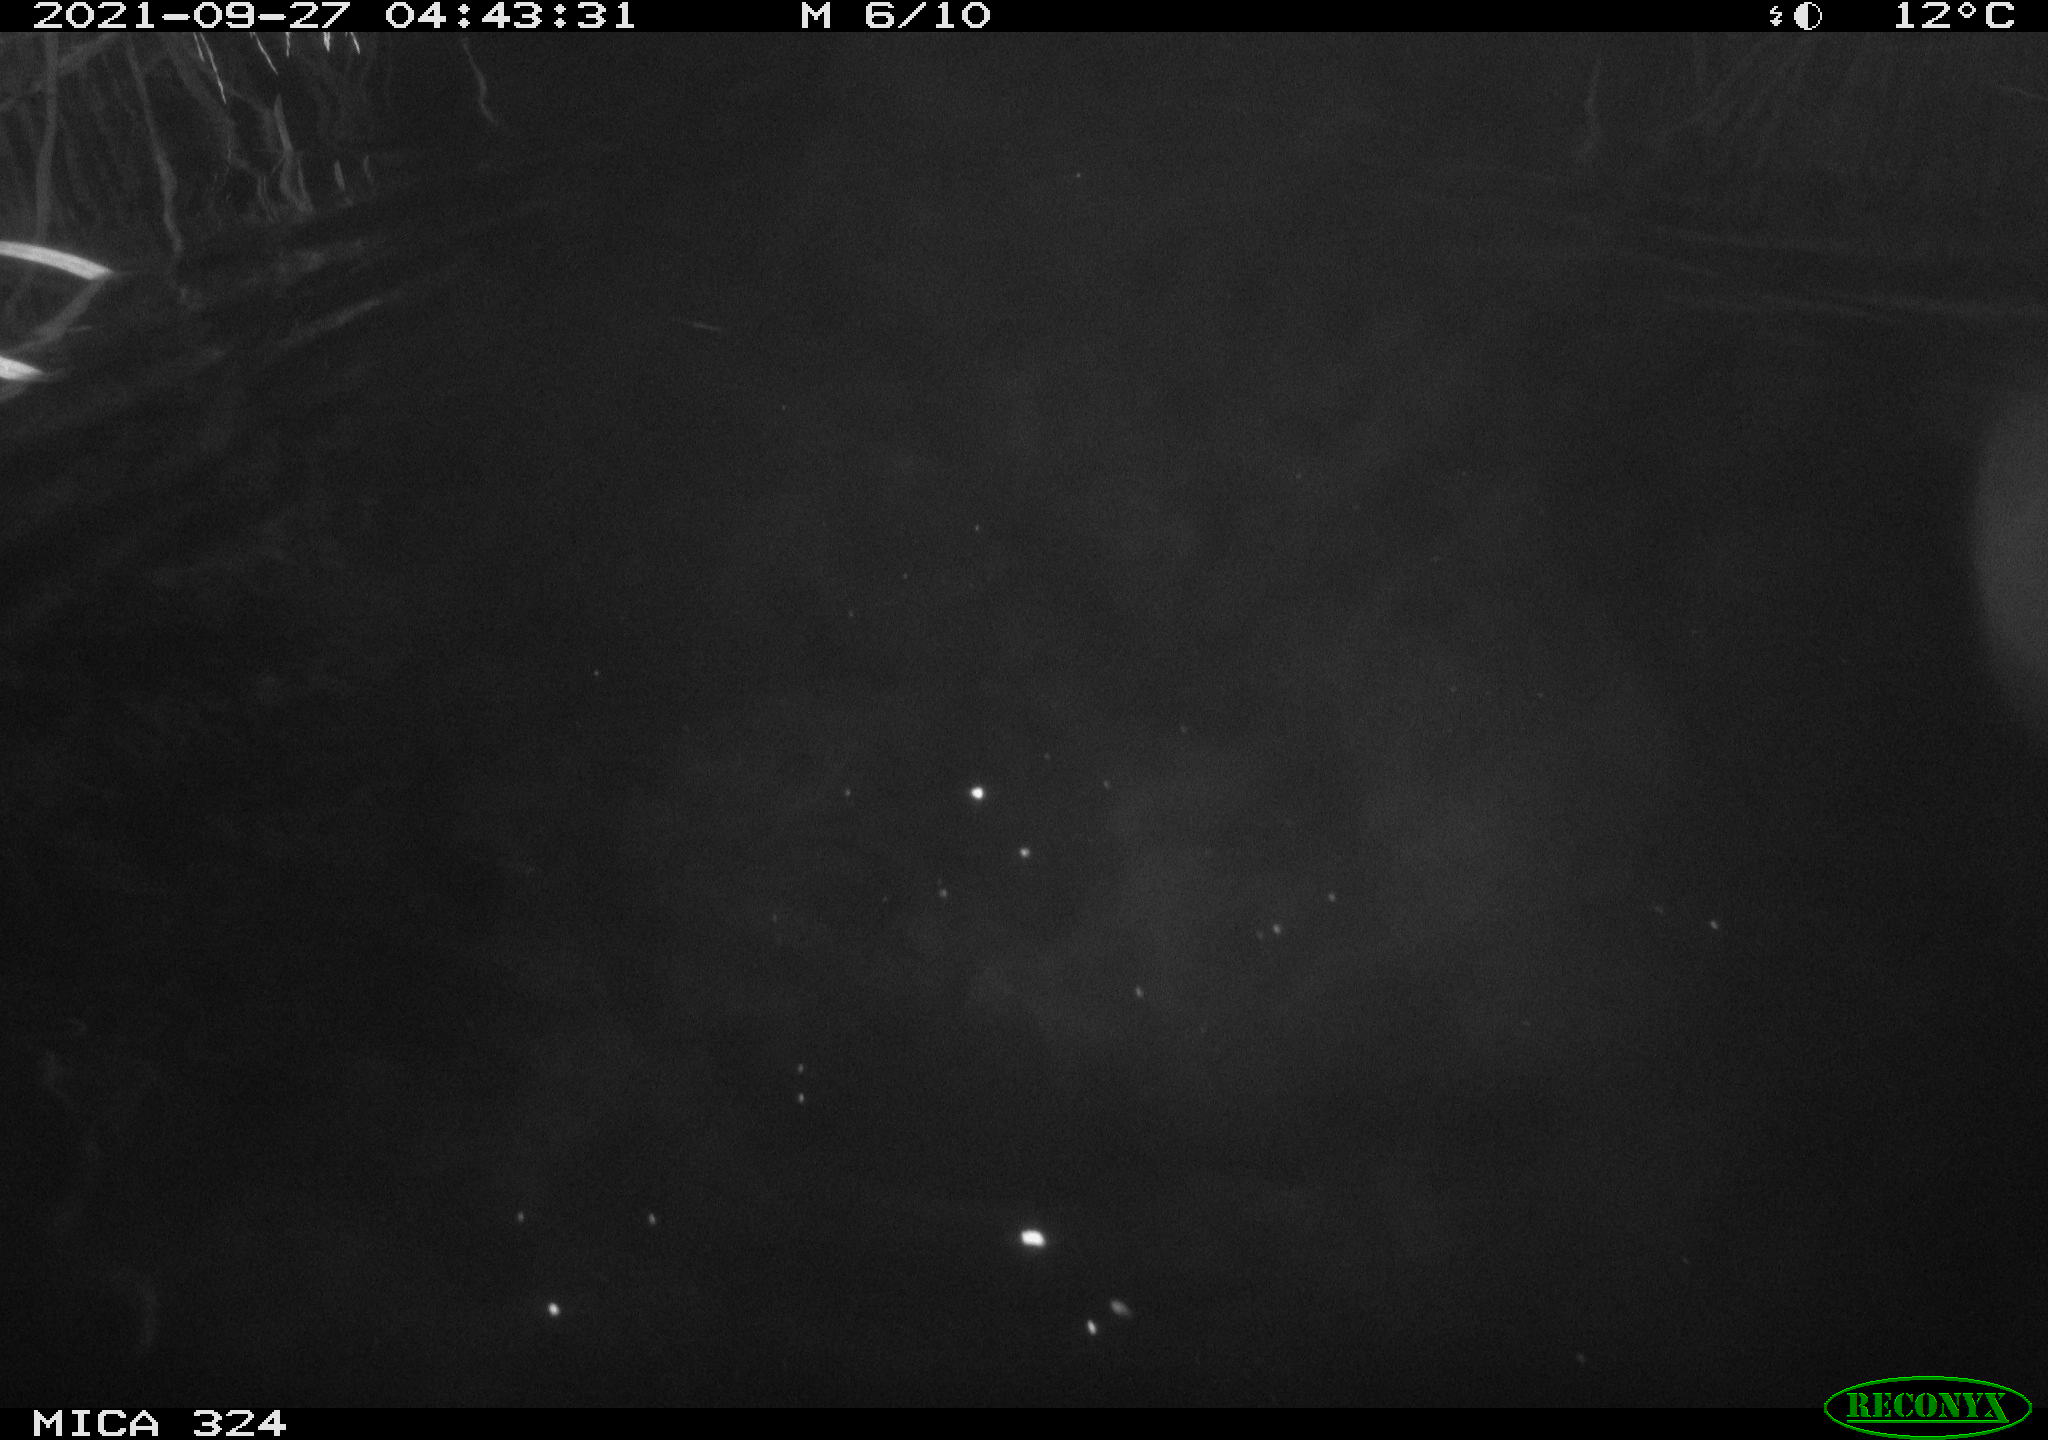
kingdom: Animalia
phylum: Chordata
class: Mammalia
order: Rodentia
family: Cricetidae
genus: Ondatra
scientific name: Ondatra zibethicus
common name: Muskrat
